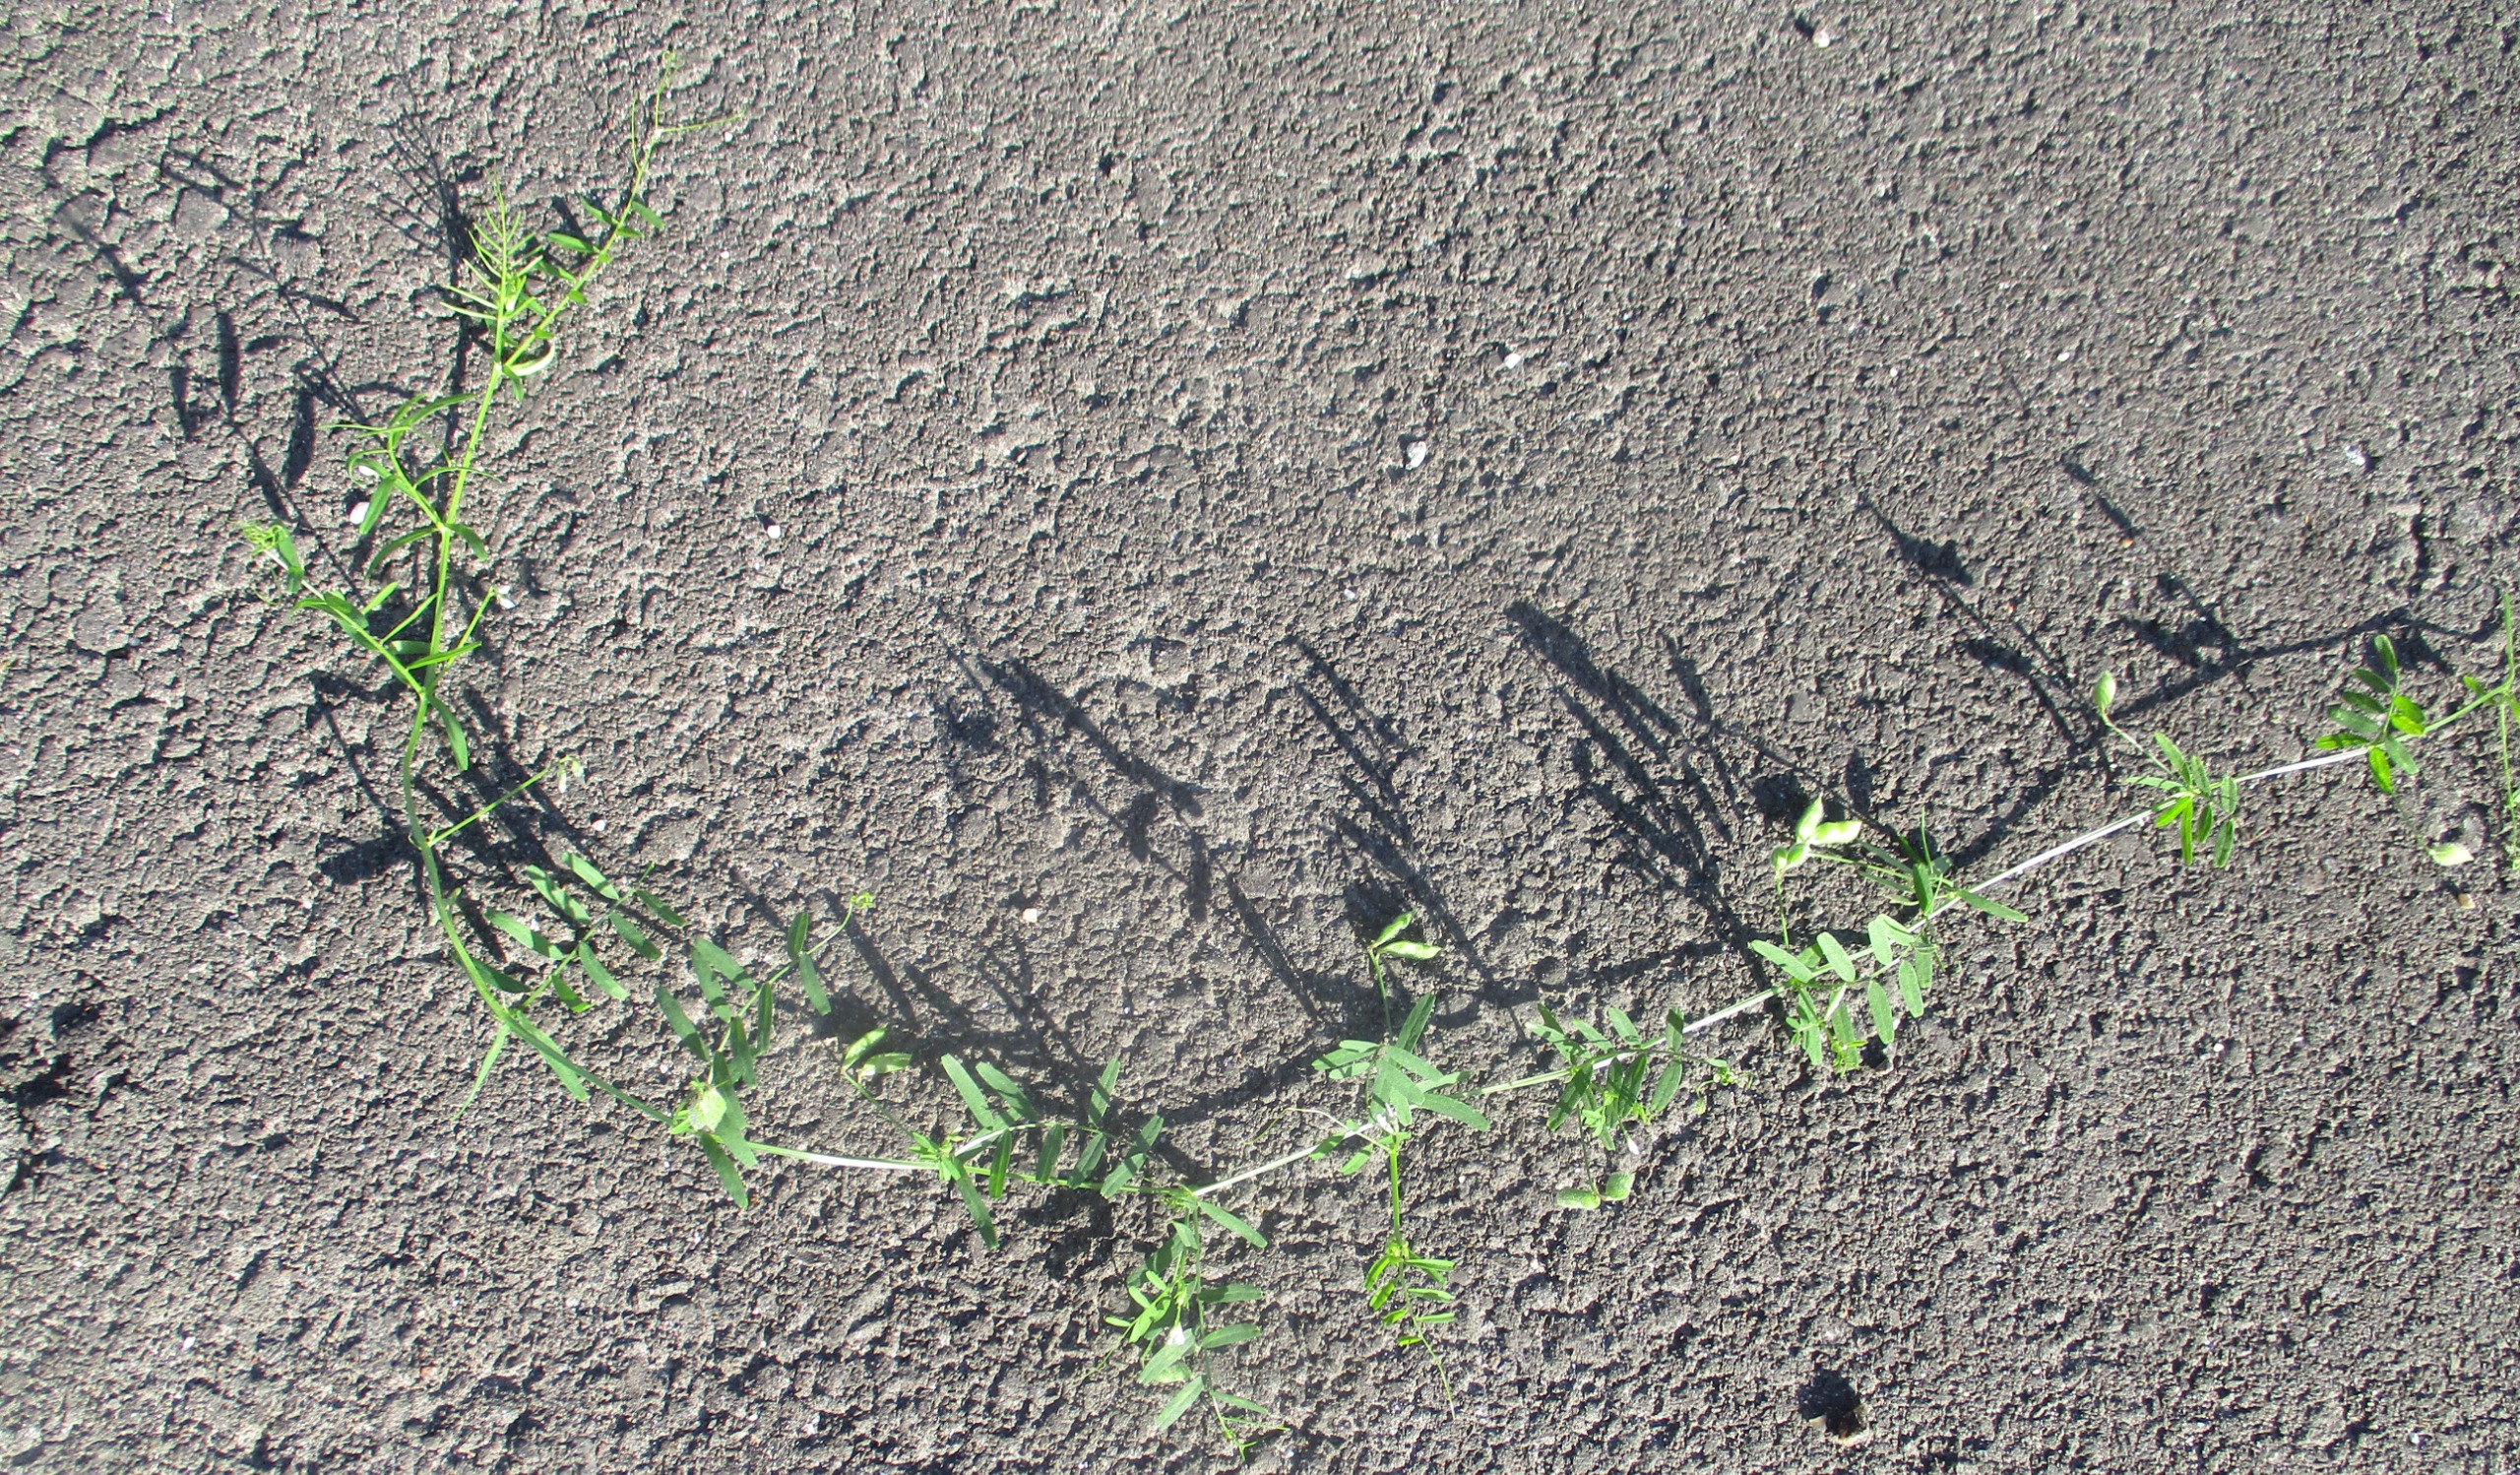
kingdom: Plantae
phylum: Tracheophyta
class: Magnoliopsida
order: Fabales
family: Fabaceae
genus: Vicia
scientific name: Vicia hirsuta
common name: Tofrøet vikke
